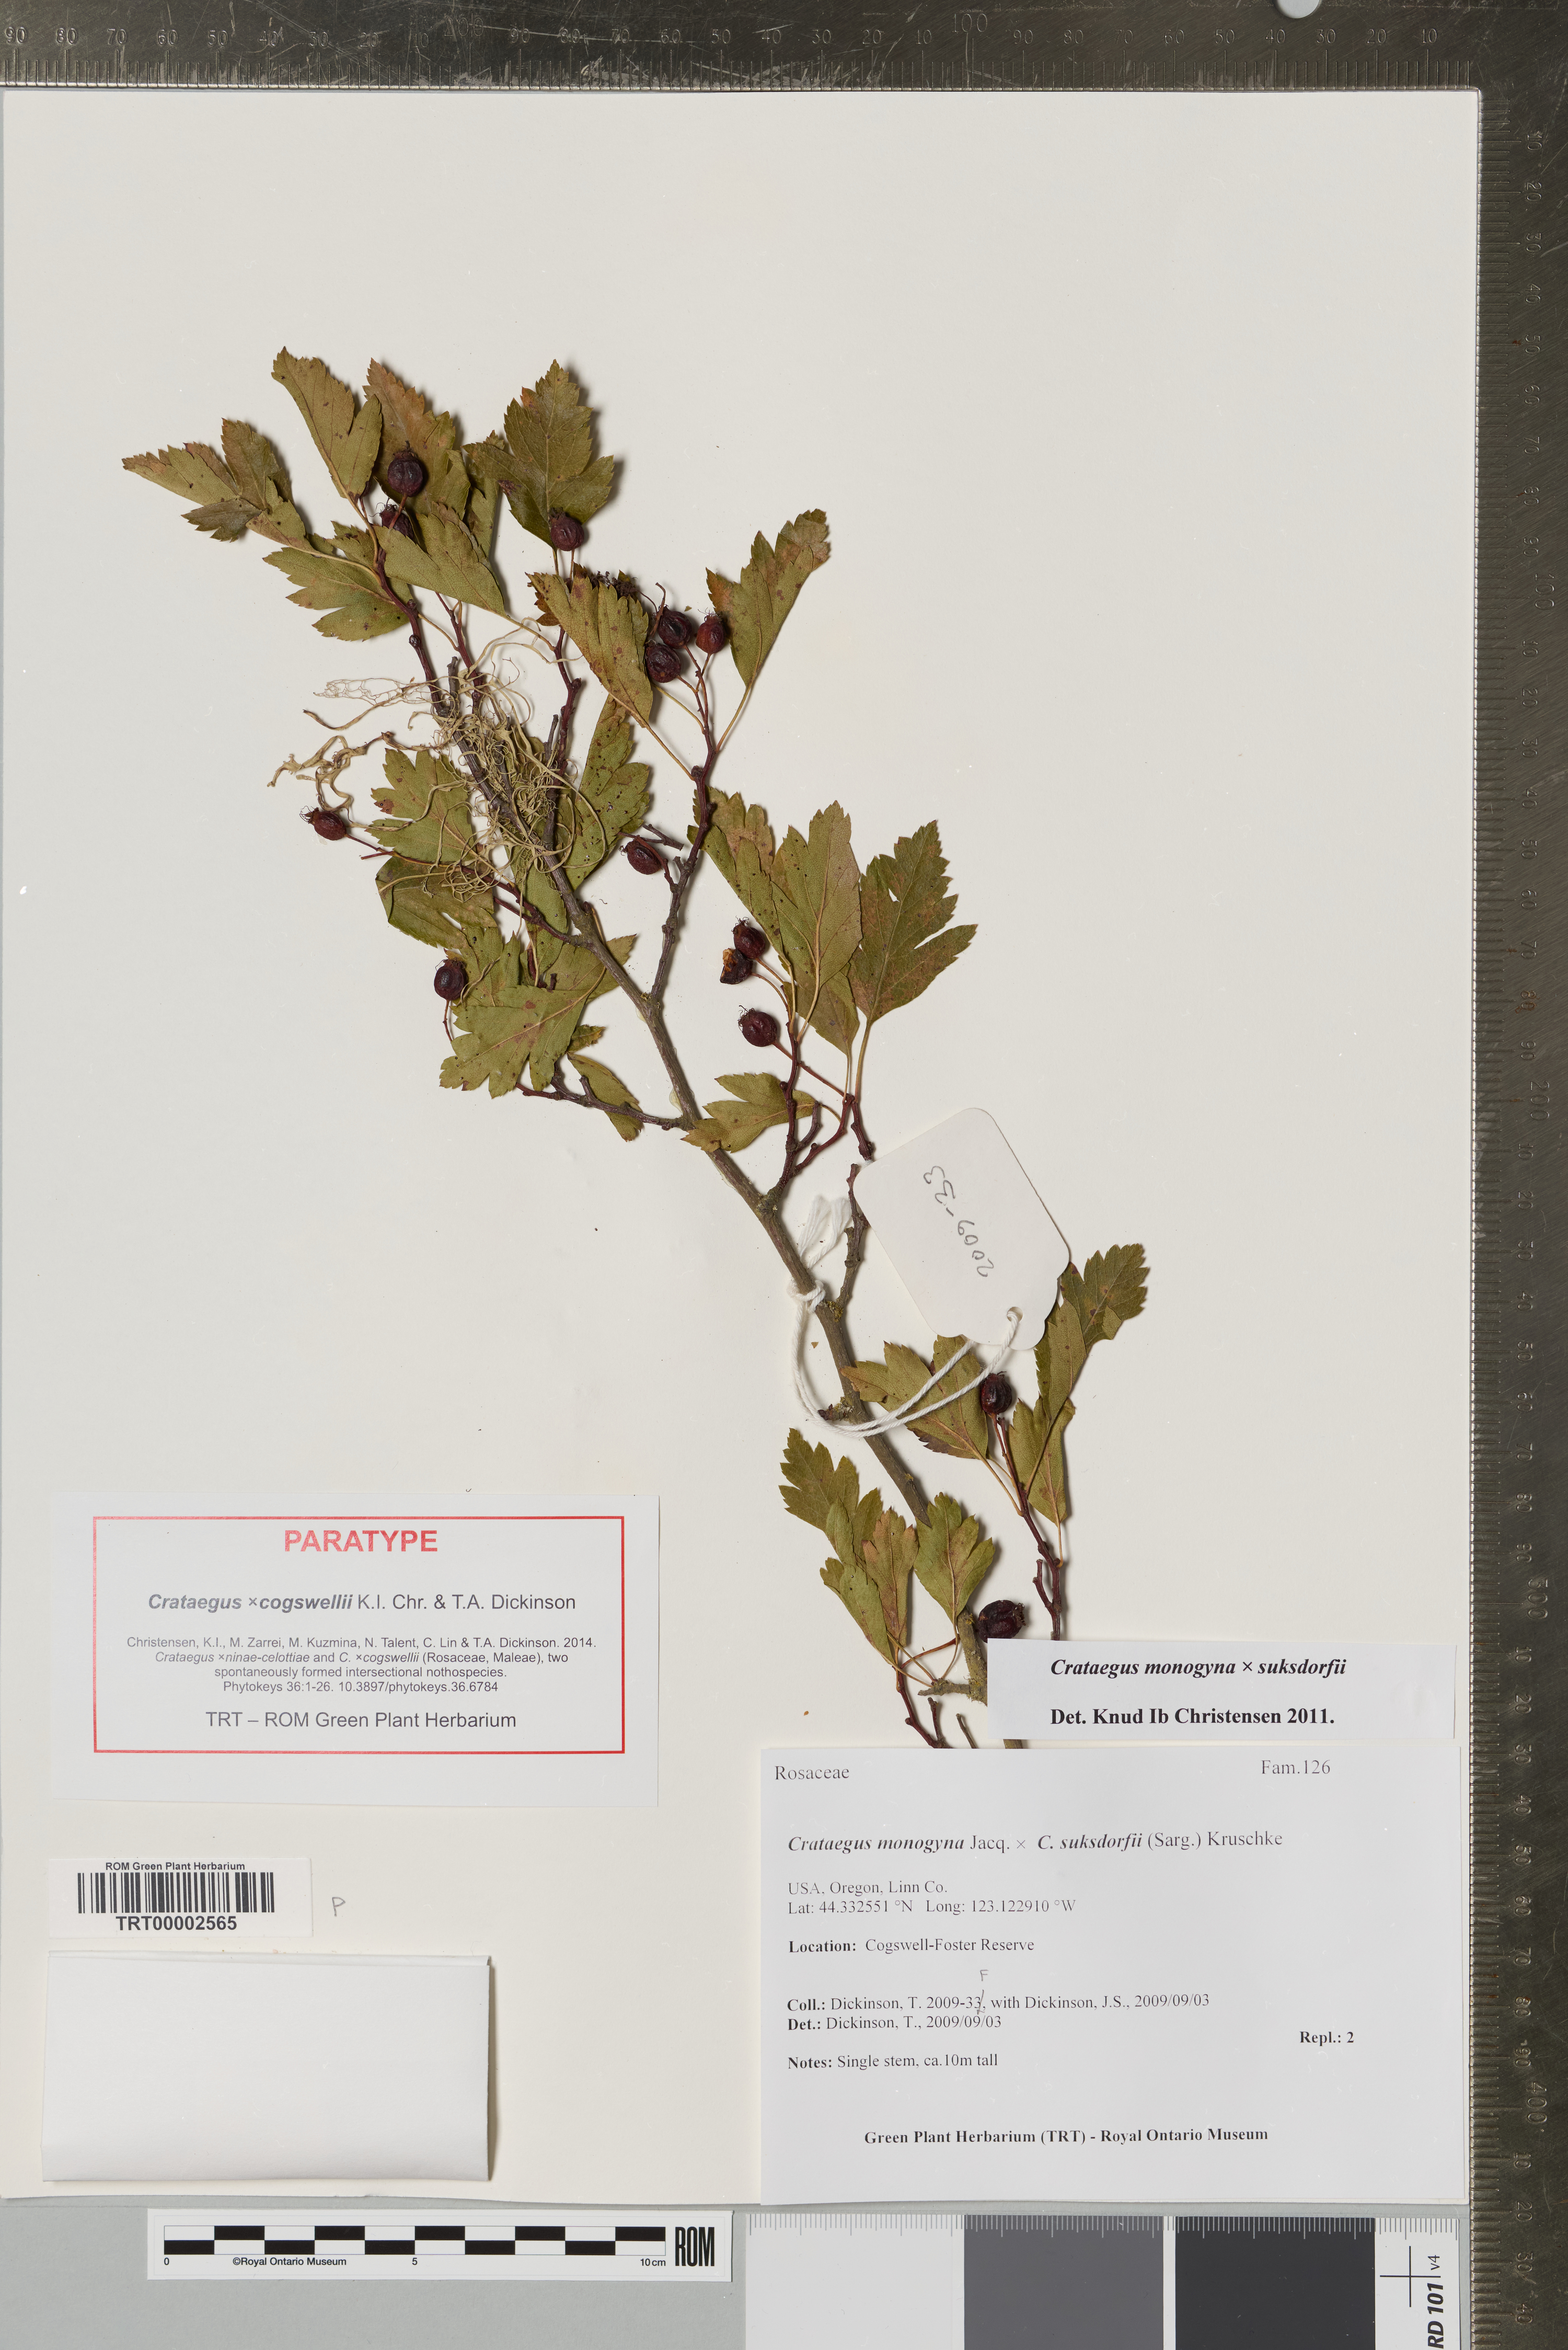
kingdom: Plantae
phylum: Tracheophyta
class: Magnoliopsida
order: Rosales
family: Rosaceae
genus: Crataegus
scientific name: Crataegus
